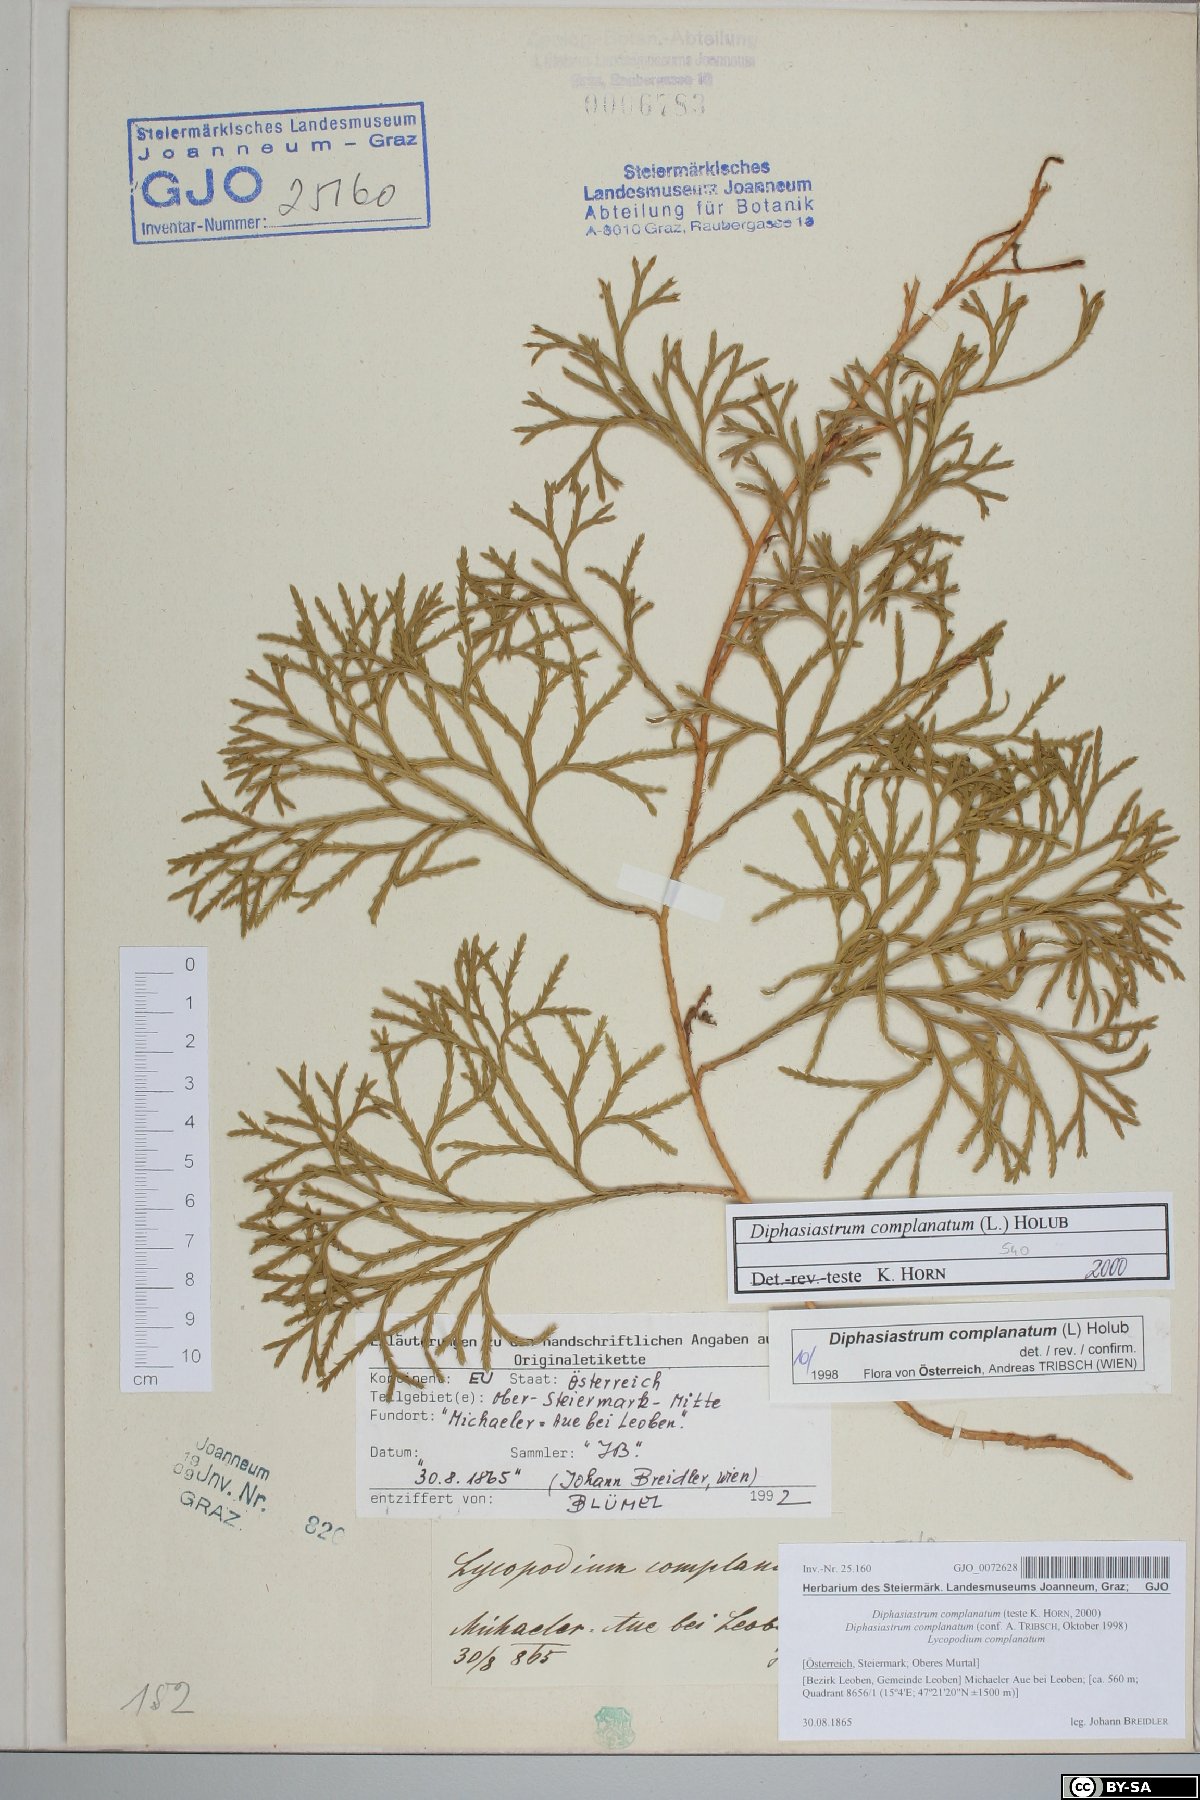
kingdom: Plantae
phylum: Tracheophyta
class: Lycopodiopsida
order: Lycopodiales
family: Lycopodiaceae
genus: Diphasiastrum
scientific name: Diphasiastrum complanatum
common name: Northern running-pine
